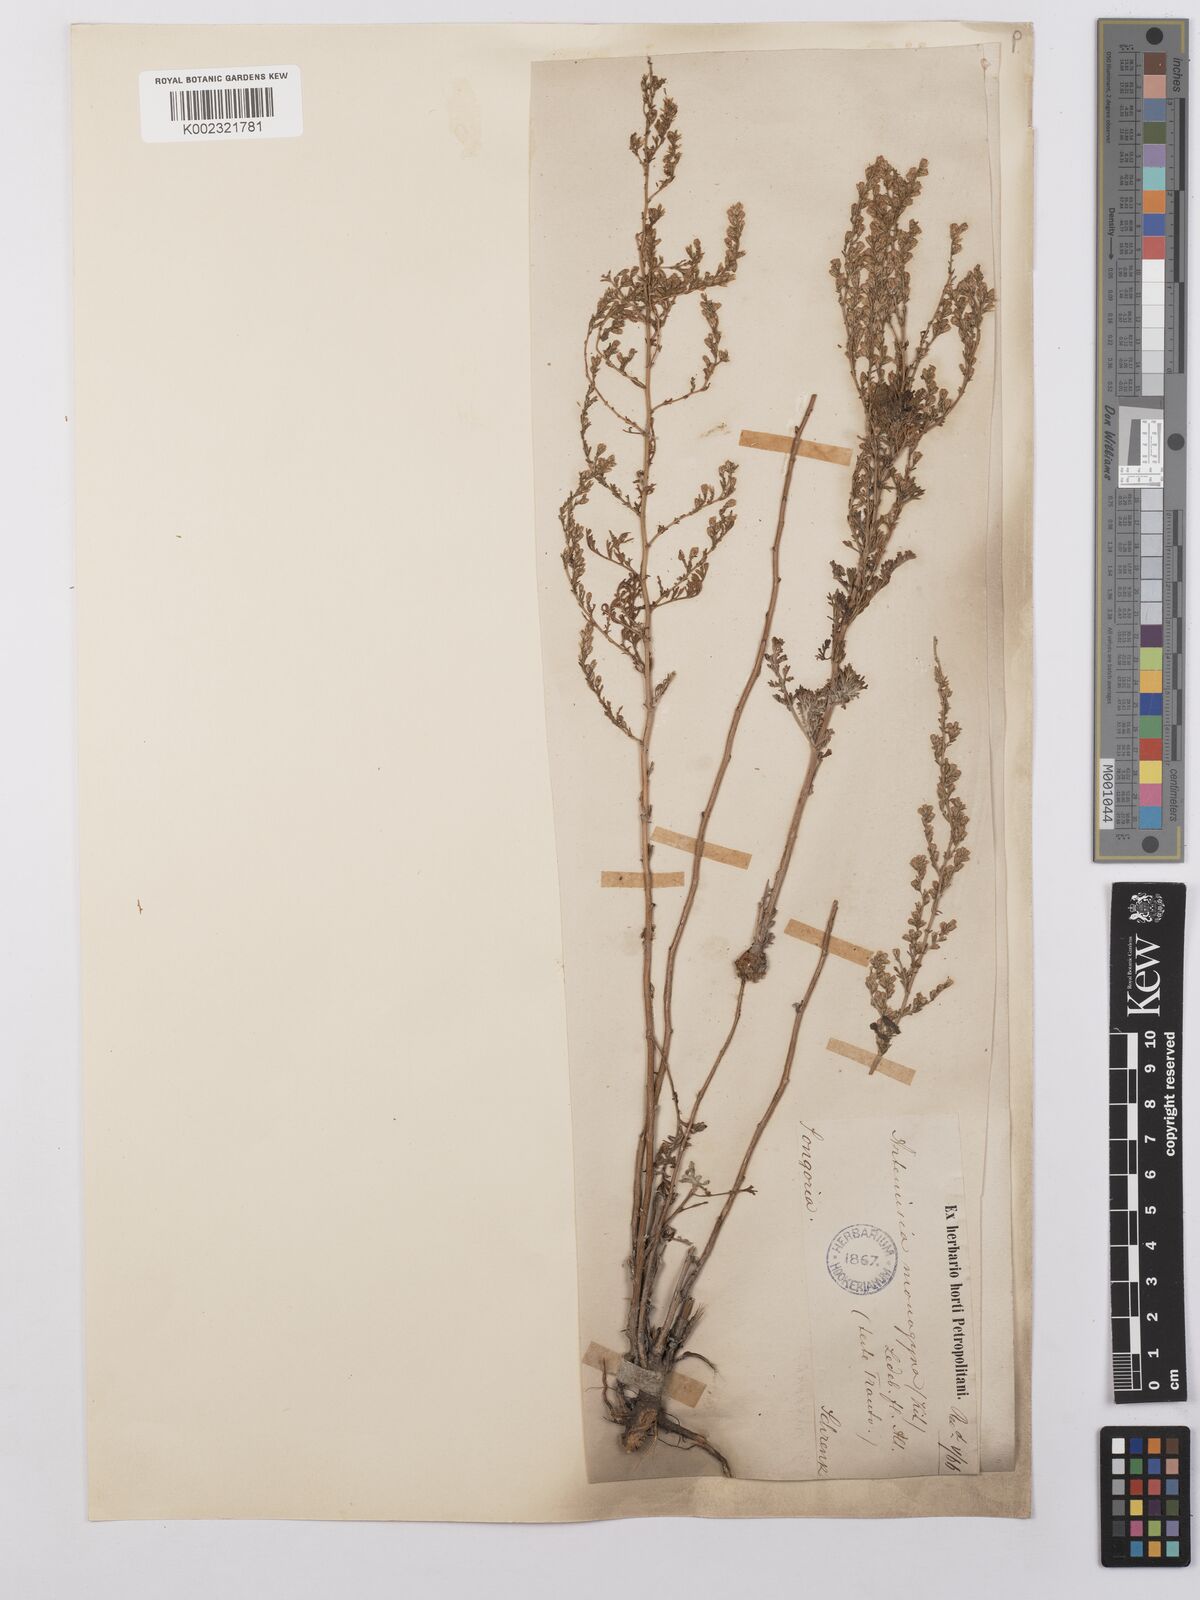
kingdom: Plantae
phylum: Tracheophyta
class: Magnoliopsida
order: Asterales
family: Asteraceae
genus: Artemisia
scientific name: Artemisia santonicum
